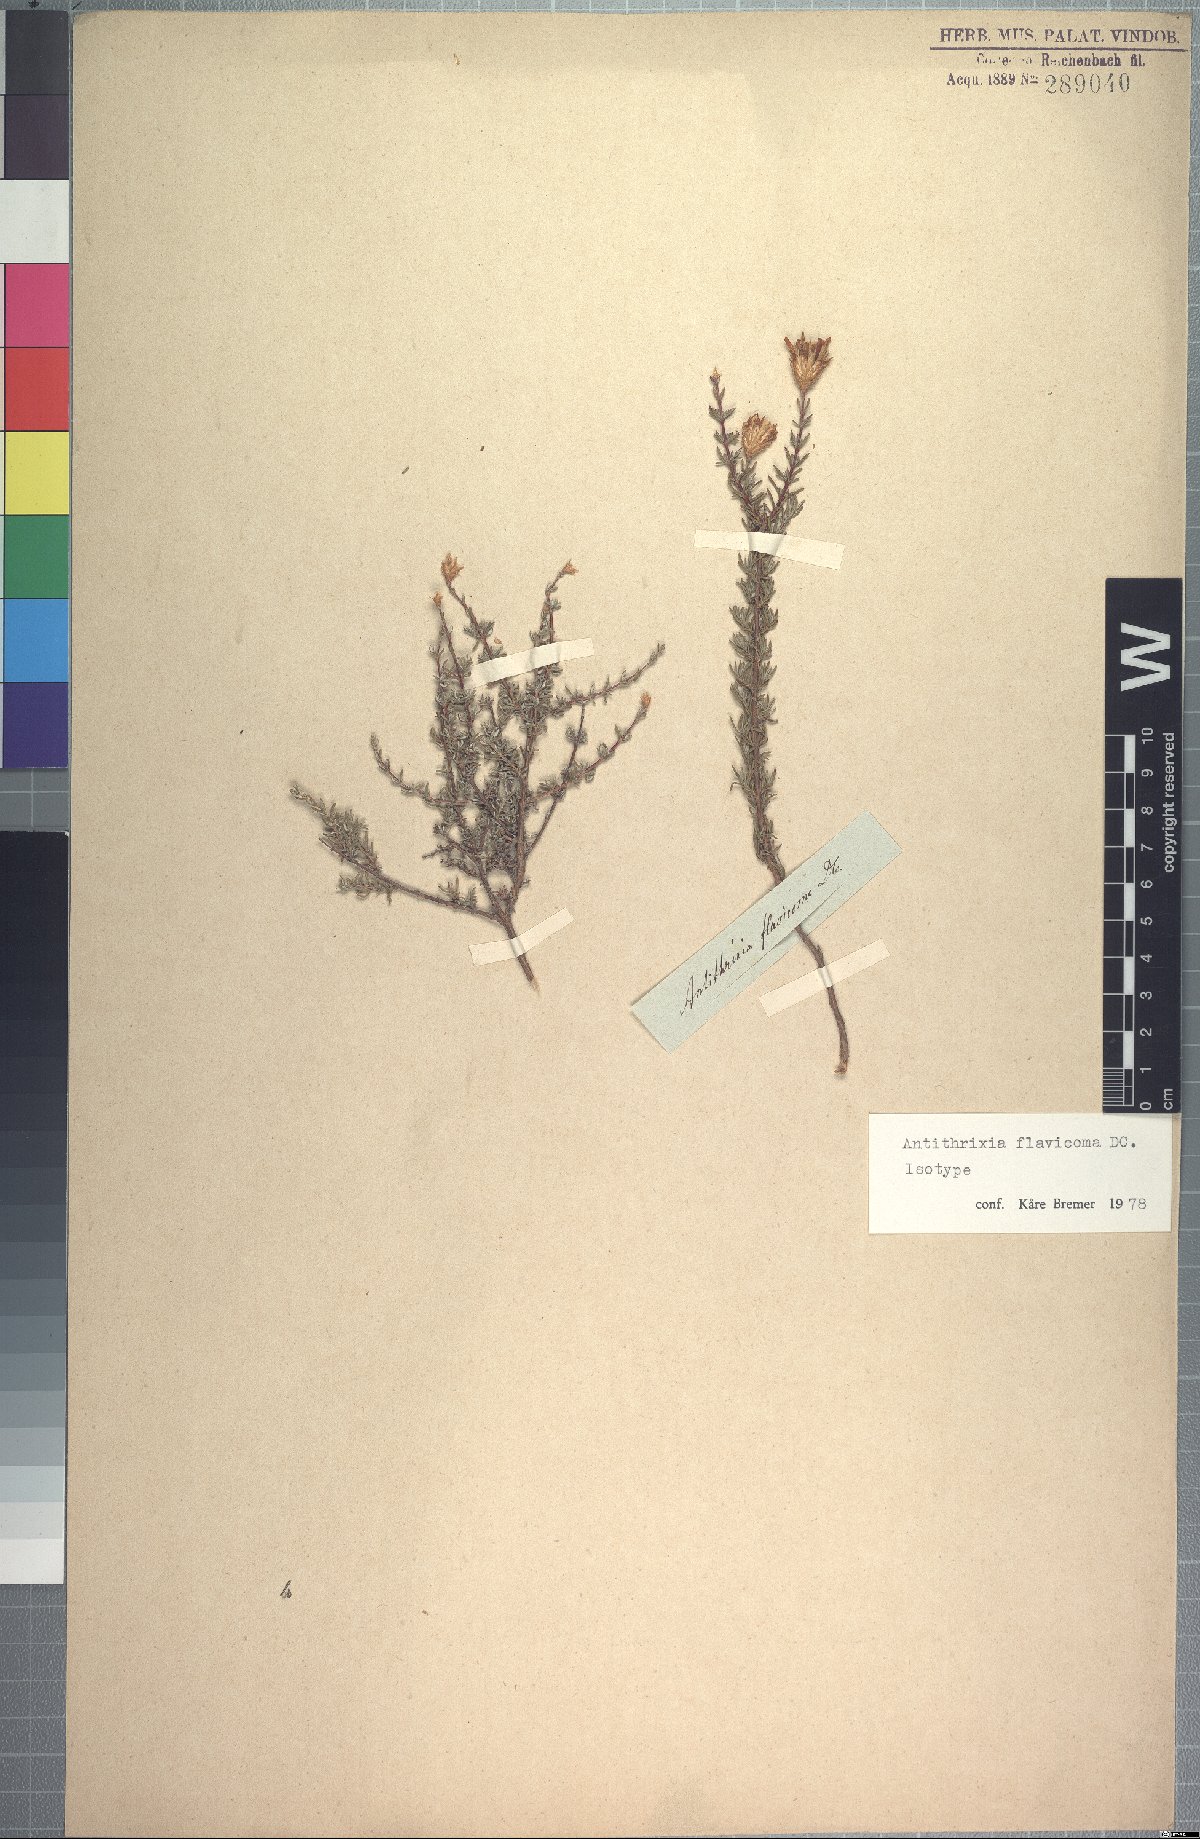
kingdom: Plantae
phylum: Tracheophyta
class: Magnoliopsida
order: Asterales
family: Asteraceae
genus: Oedera
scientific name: Oedera flavicoma
